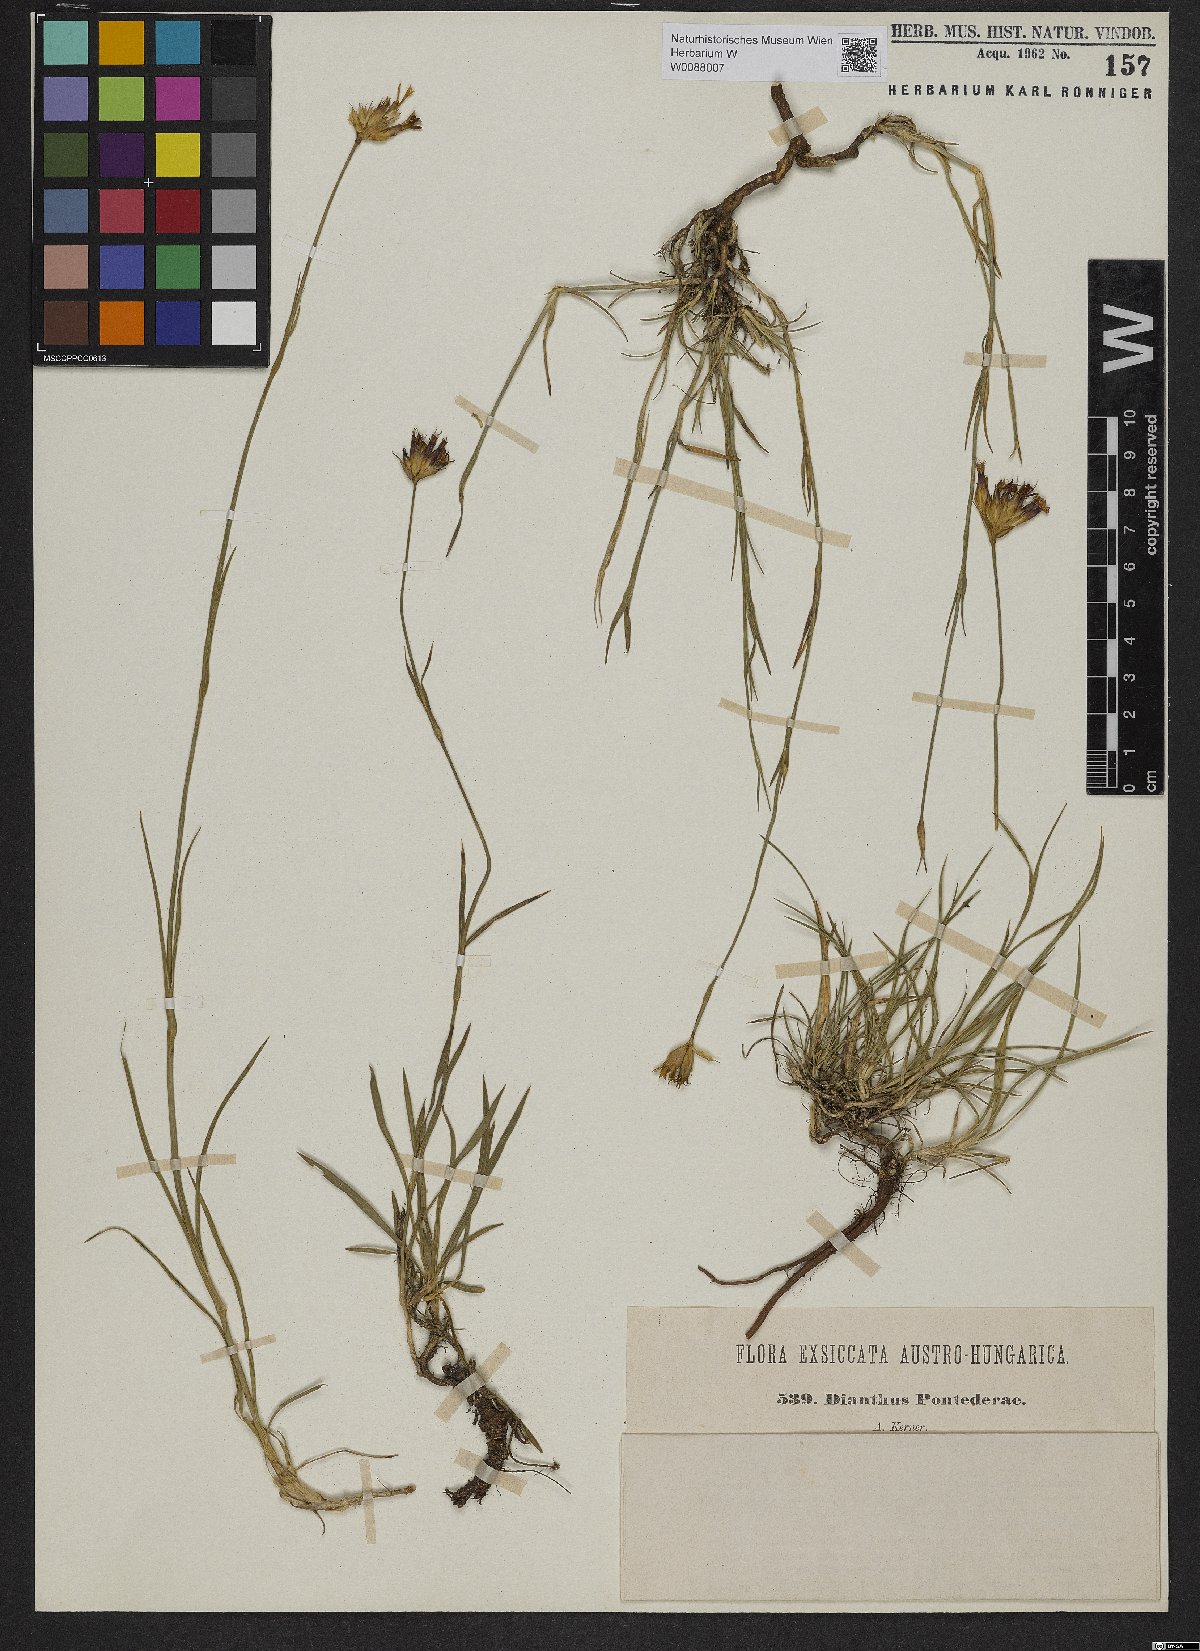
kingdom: Plantae
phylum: Tracheophyta
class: Magnoliopsida
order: Caryophyllales
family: Caryophyllaceae
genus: Dianthus
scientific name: Dianthus pontederae
